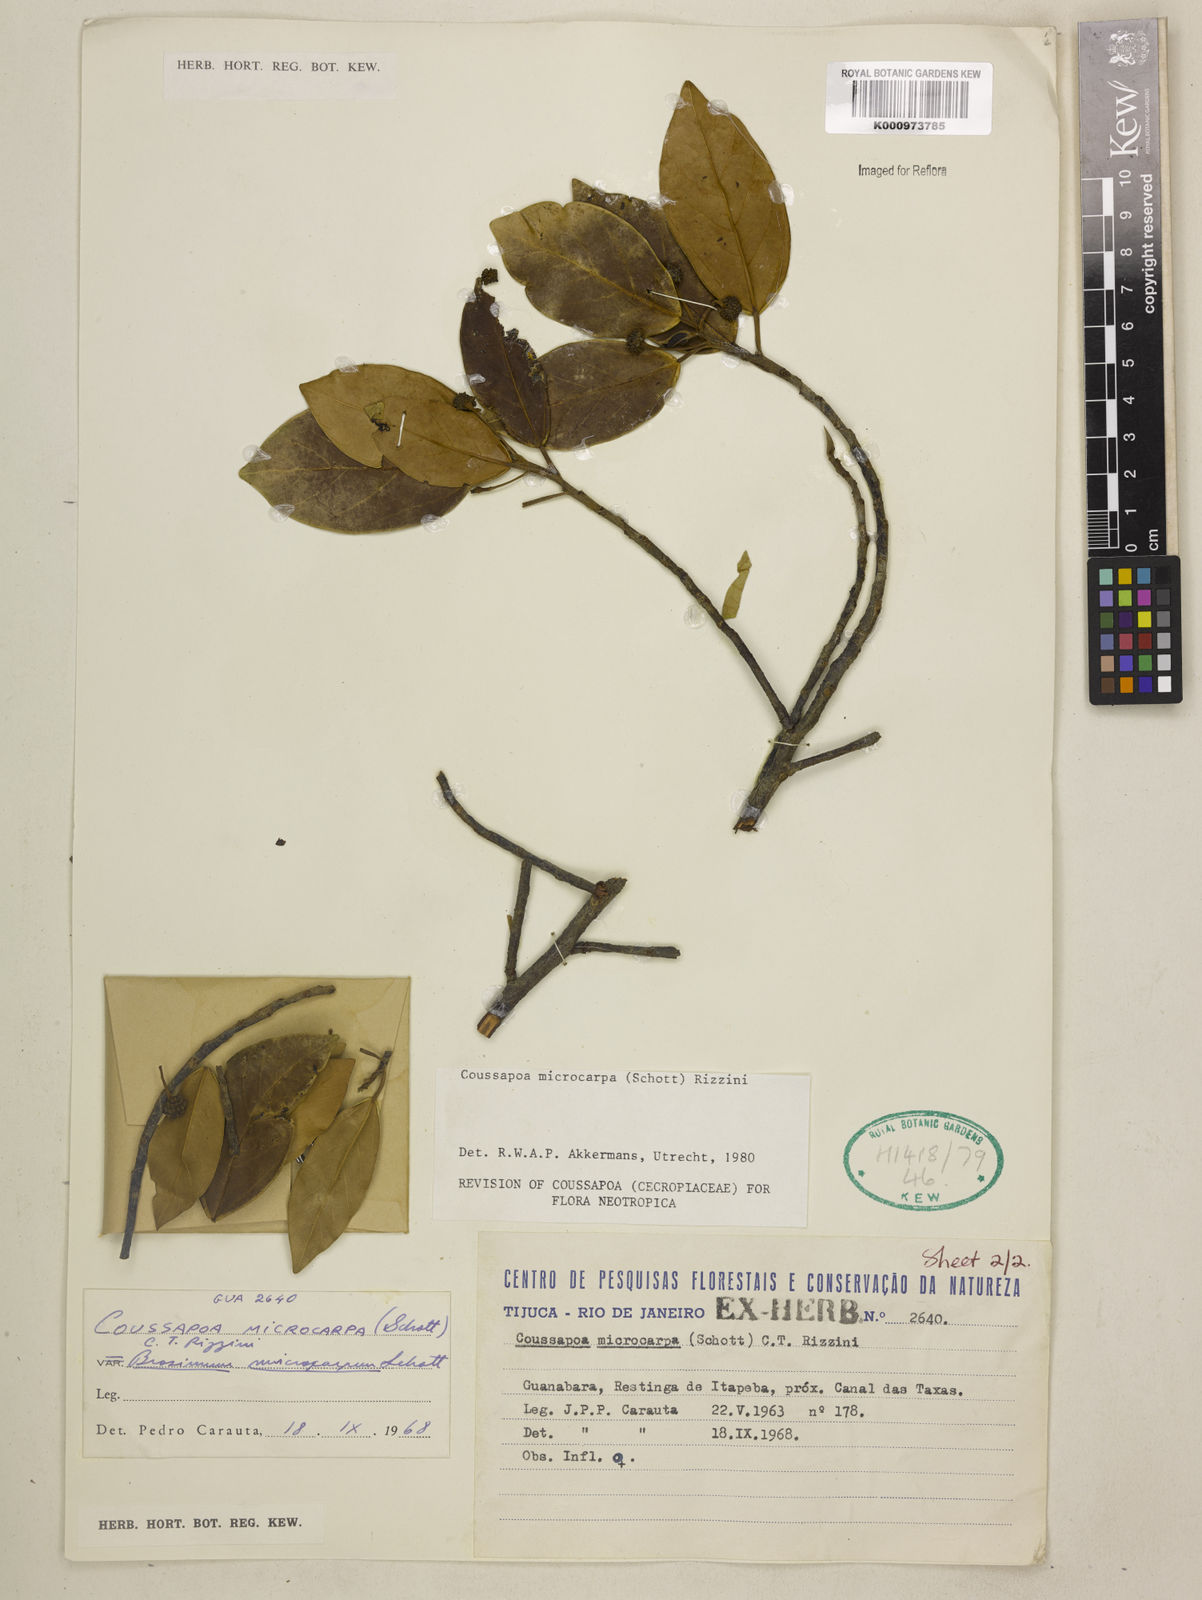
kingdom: Plantae
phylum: Tracheophyta
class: Magnoliopsida
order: Rosales
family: Urticaceae
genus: Coussapoa
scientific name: Coussapoa microcarpa
